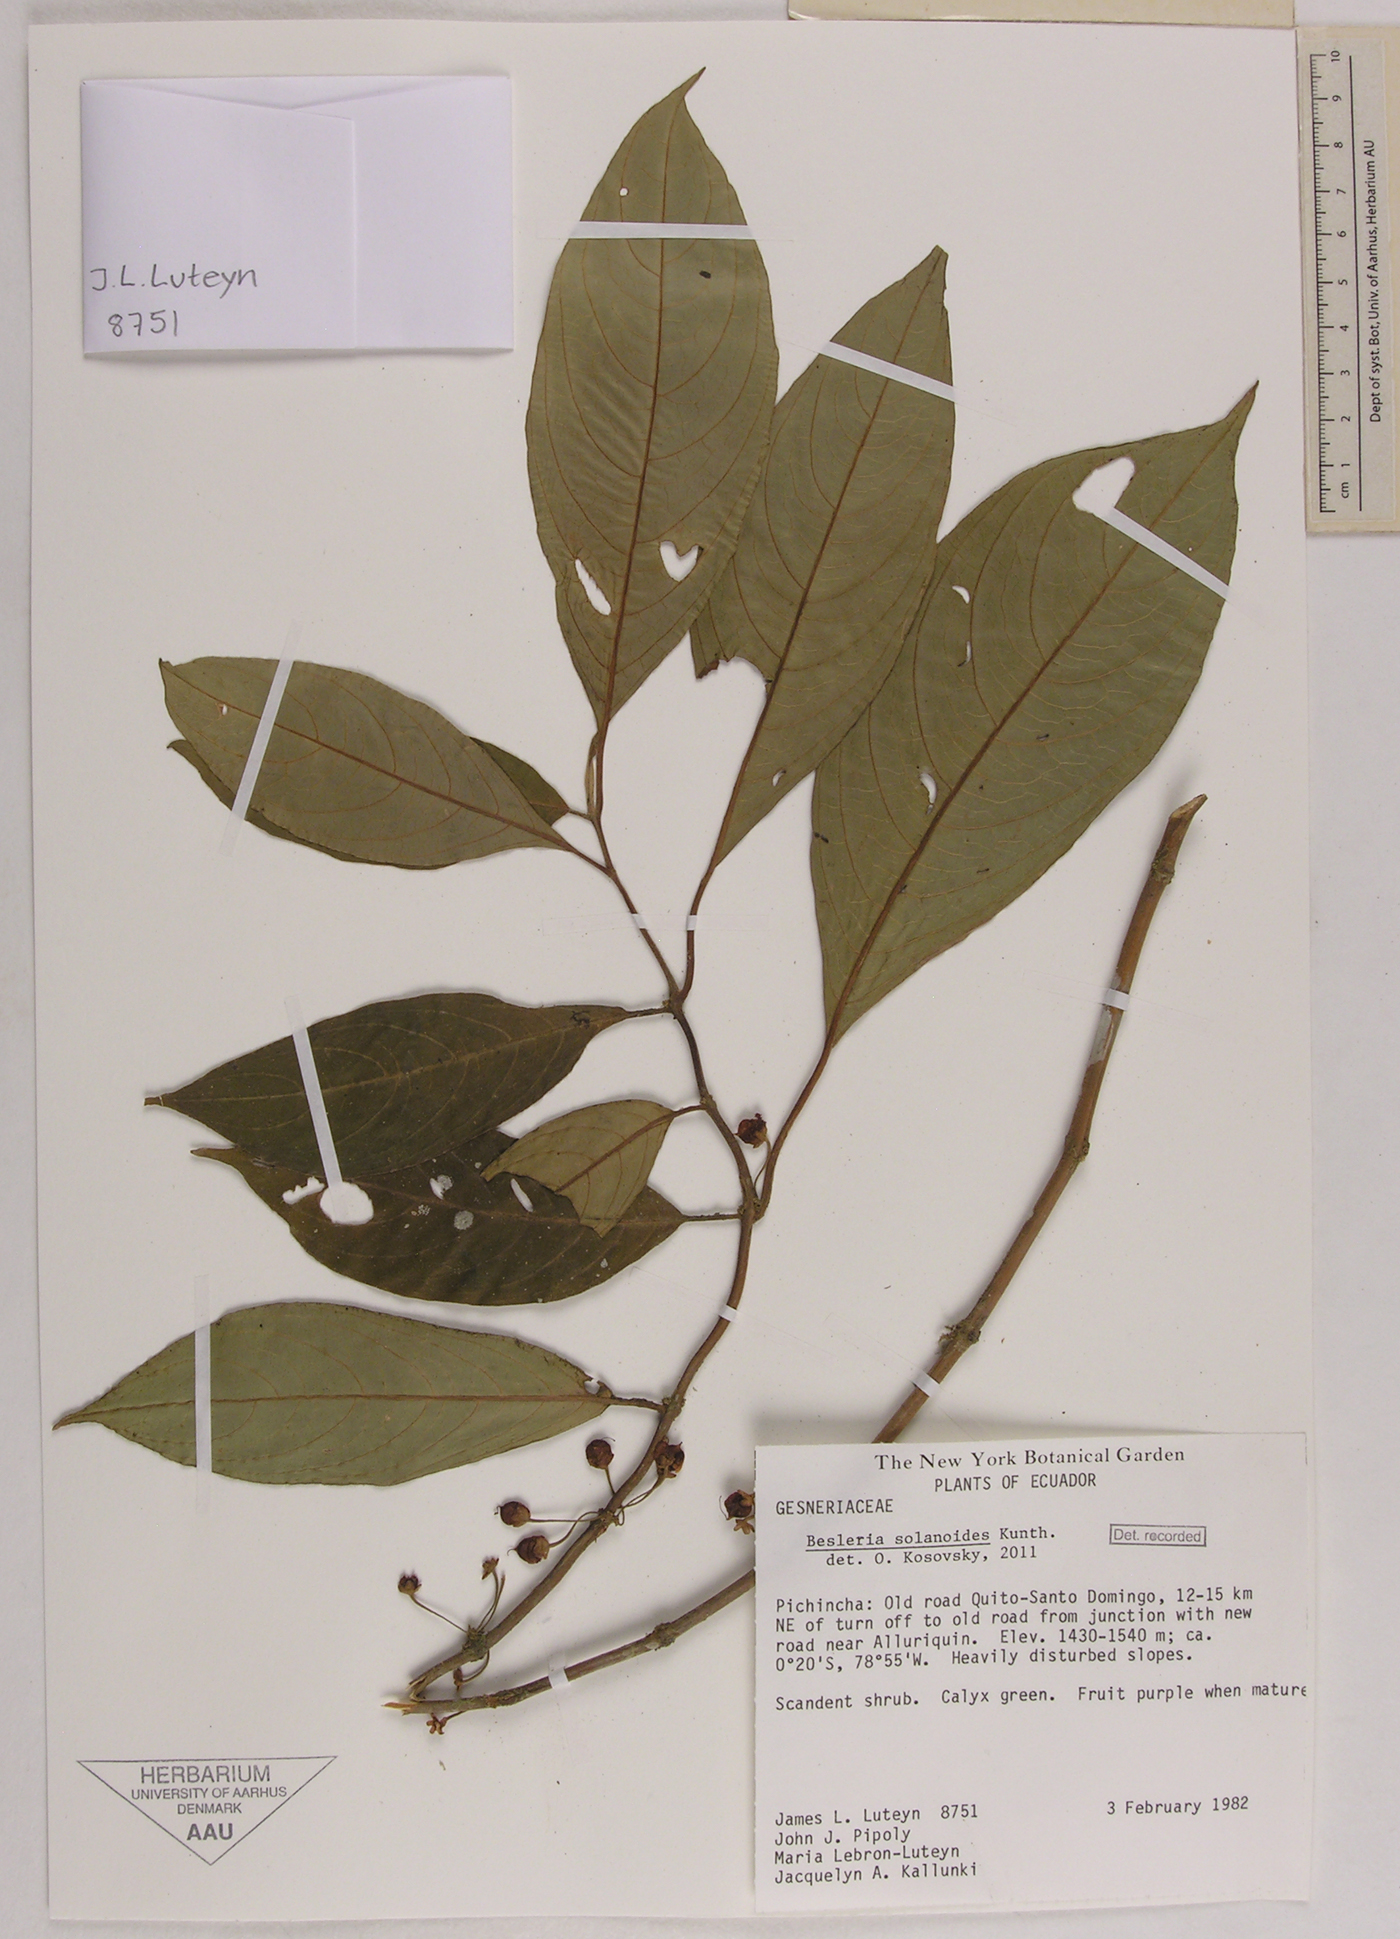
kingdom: Plantae
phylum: Tracheophyta
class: Magnoliopsida
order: Lamiales
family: Gesneriaceae
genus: Besleria
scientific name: Besleria solanoides
